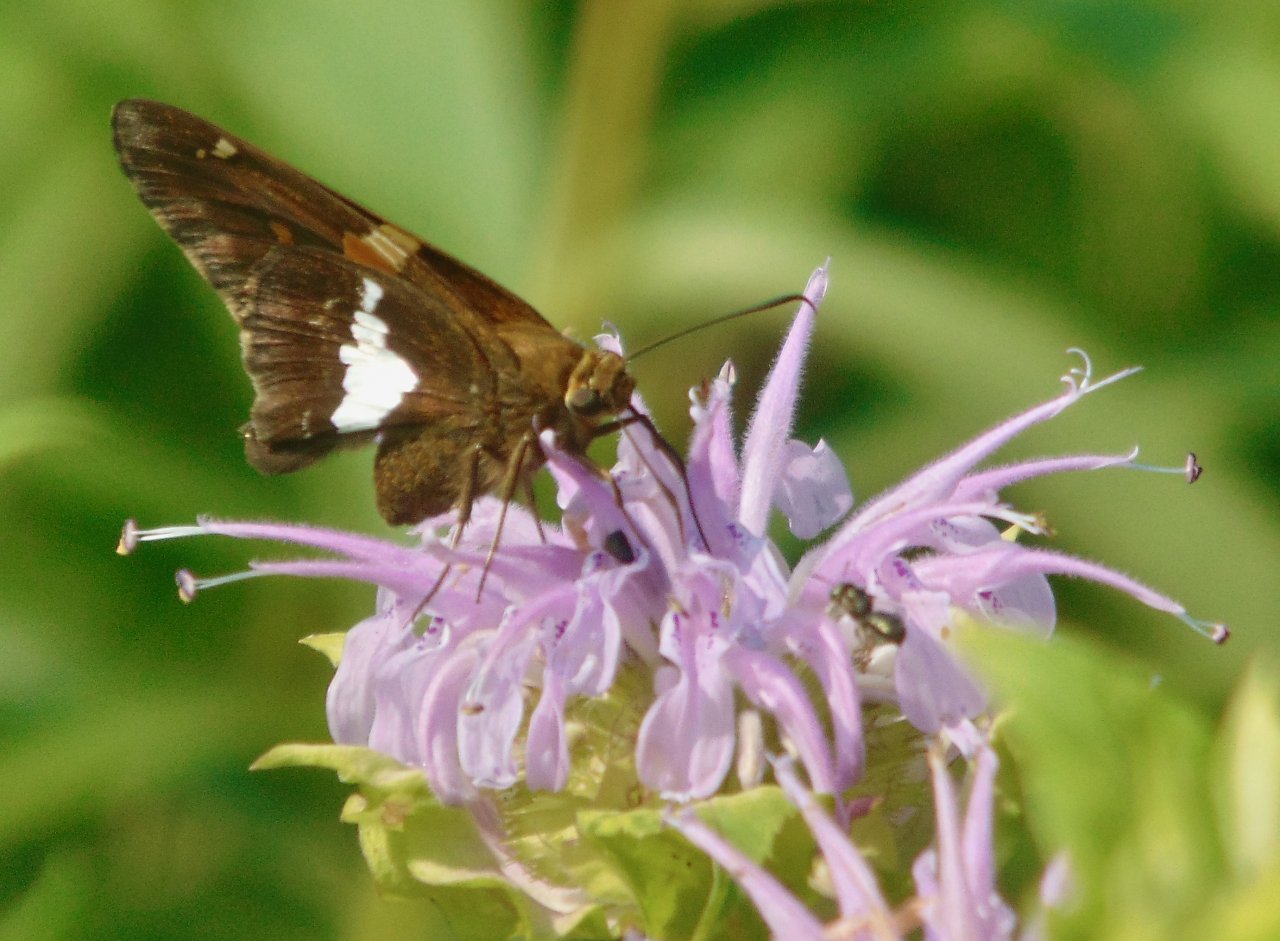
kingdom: Animalia
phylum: Arthropoda
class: Insecta
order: Lepidoptera
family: Hesperiidae
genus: Epargyreus
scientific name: Epargyreus clarus
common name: Silver-spotted Skipper
